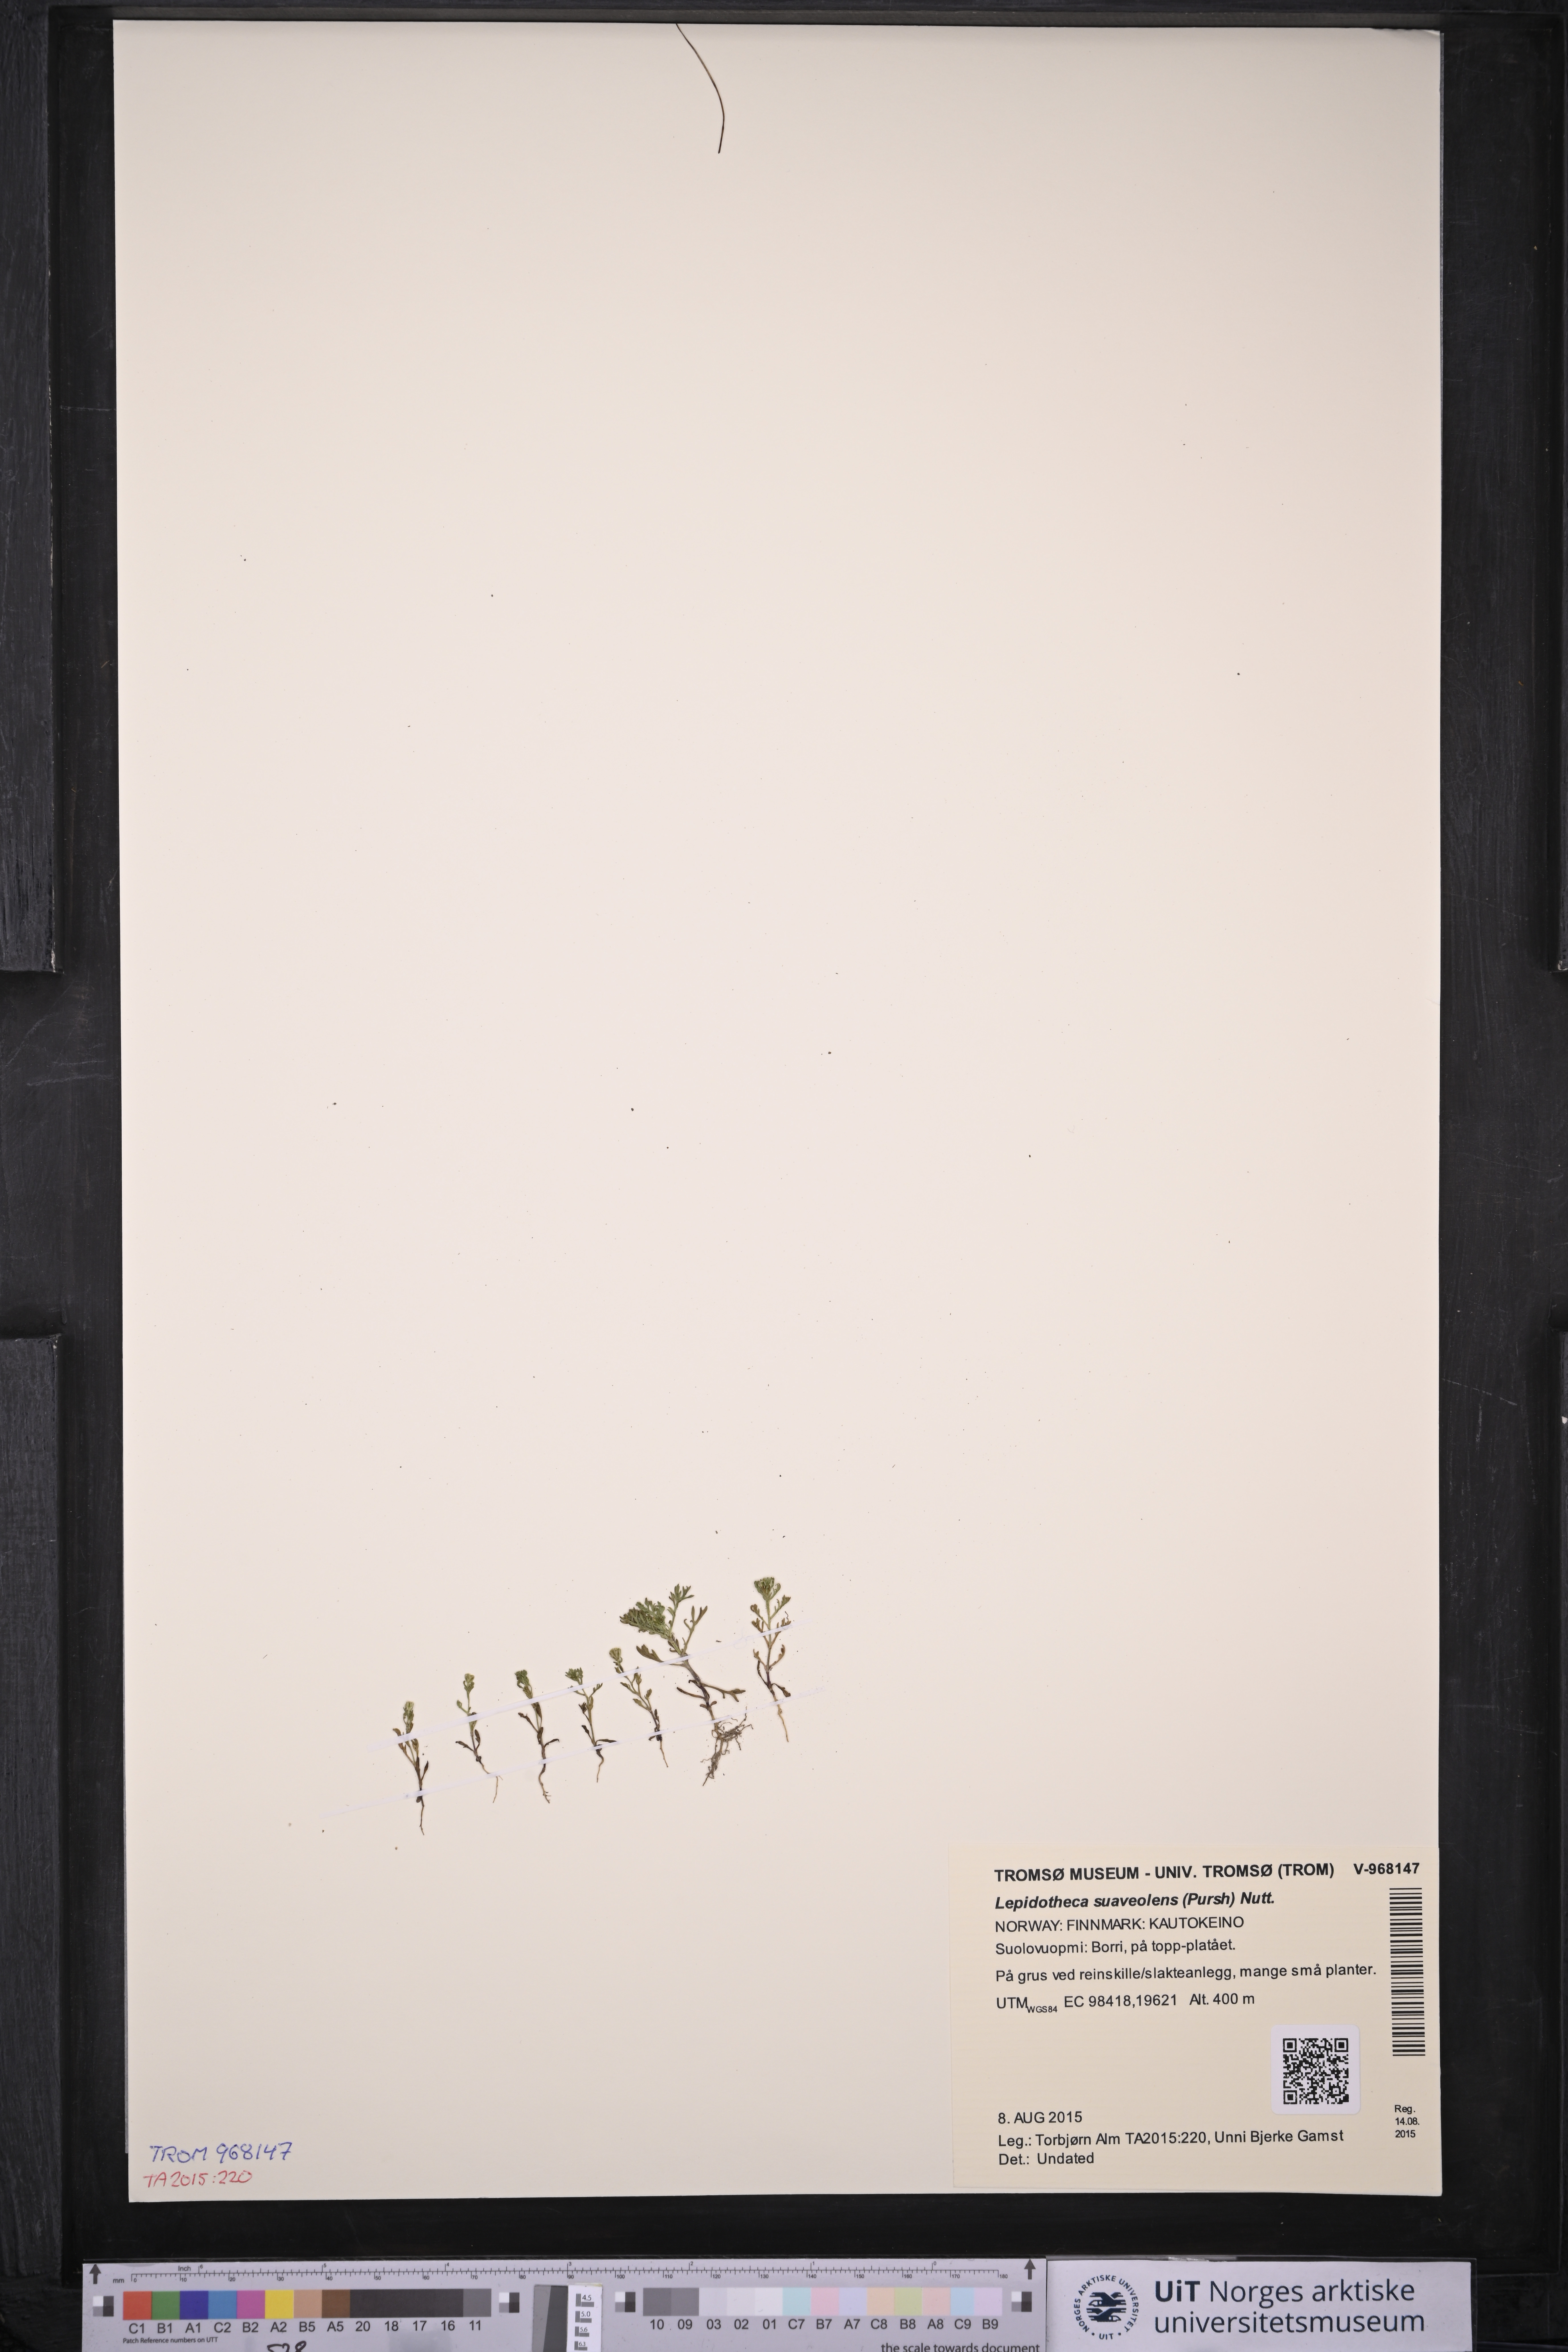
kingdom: Plantae
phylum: Tracheophyta
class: Magnoliopsida
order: Asterales
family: Asteraceae
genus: Matricaria
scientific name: Matricaria discoidea
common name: Disc mayweed
